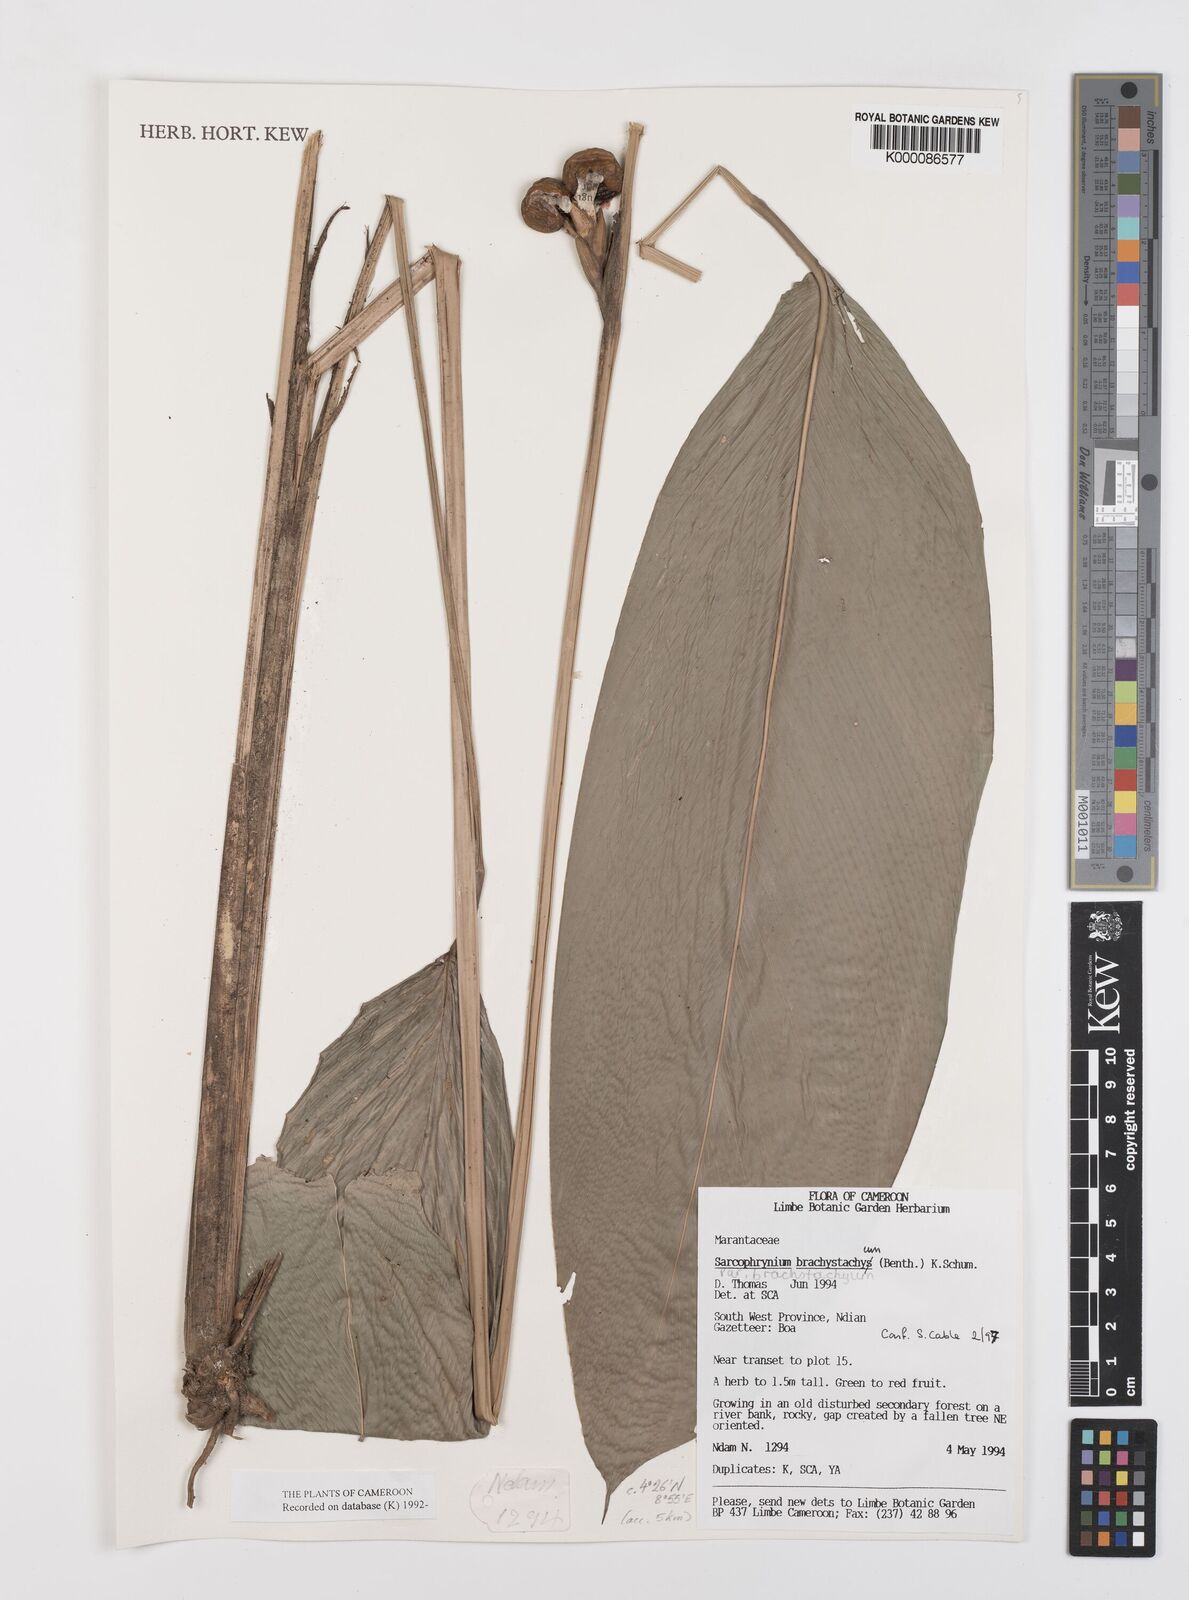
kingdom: Plantae
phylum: Tracheophyta
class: Liliopsida
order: Zingiberales
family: Marantaceae
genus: Sarcophrynium
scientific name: Sarcophrynium
